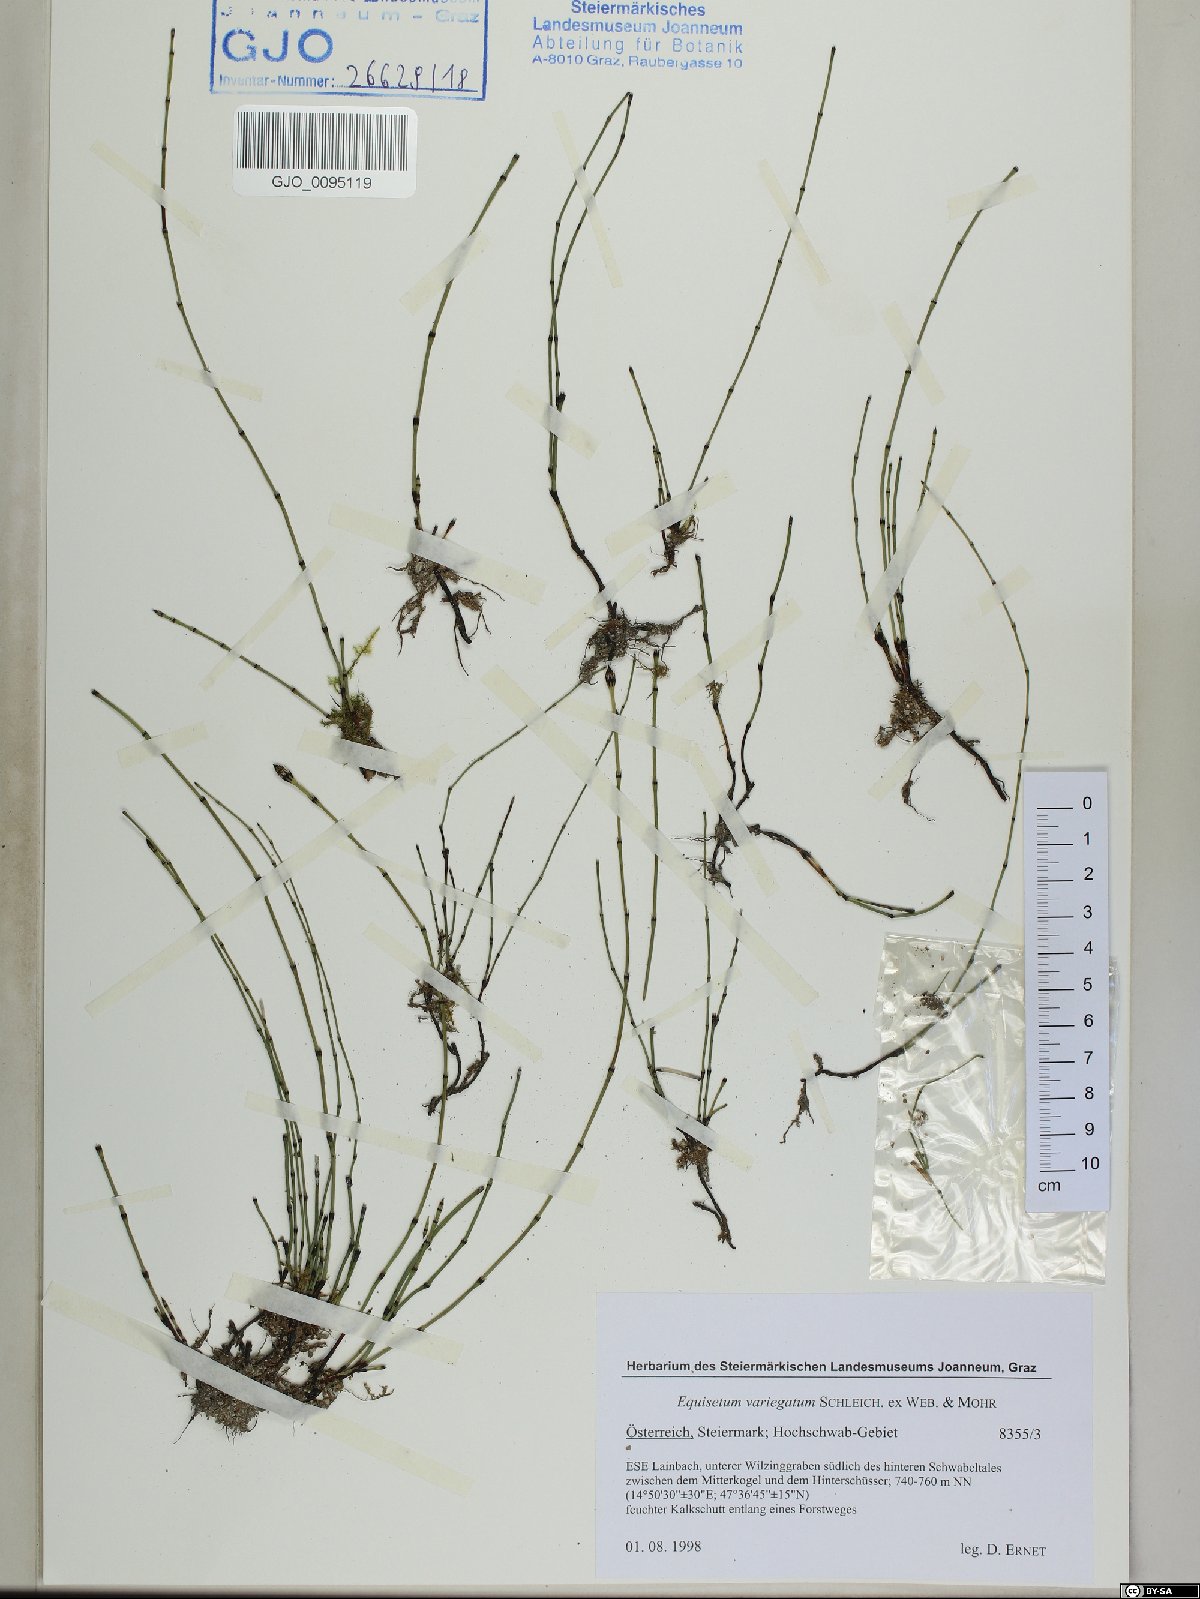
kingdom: Plantae
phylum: Tracheophyta
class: Polypodiopsida
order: Equisetales
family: Equisetaceae
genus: Equisetum
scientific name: Equisetum variegatum
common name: Variegated horsetail
